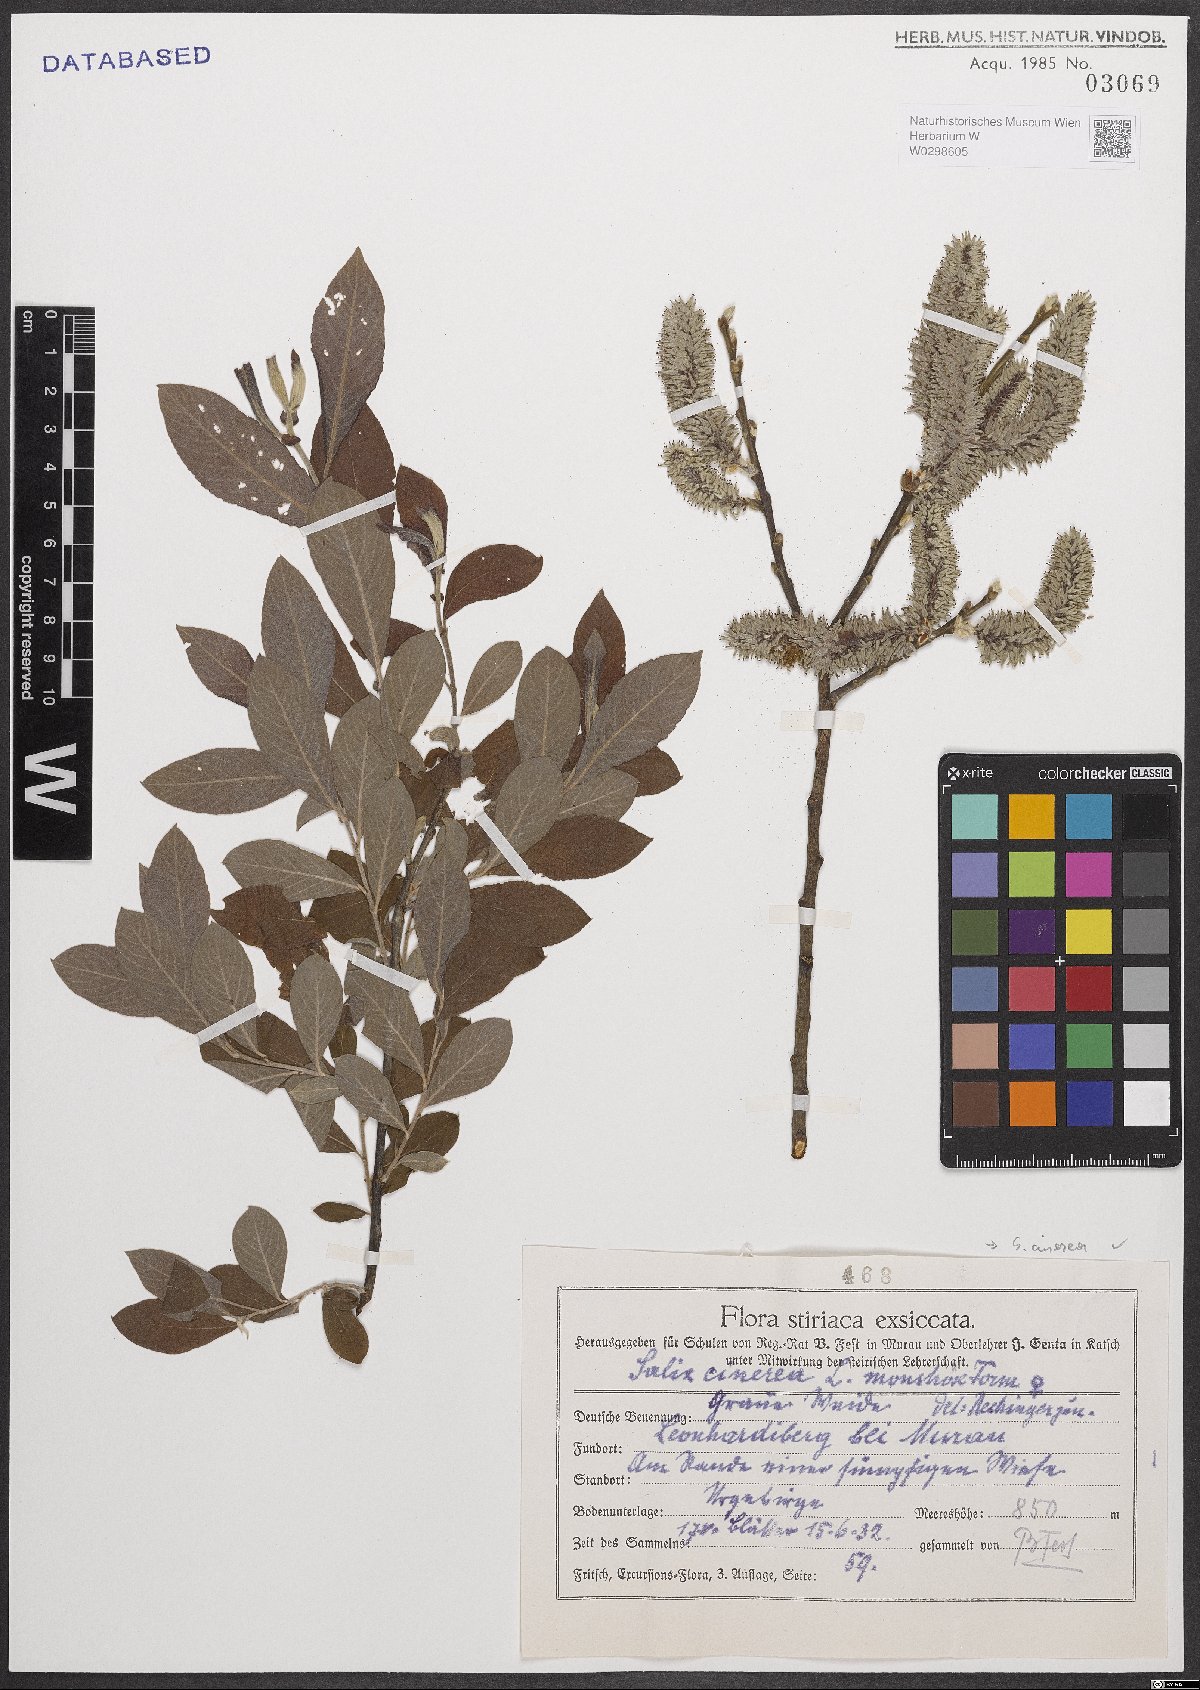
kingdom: Plantae
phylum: Tracheophyta
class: Magnoliopsida
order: Malpighiales
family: Salicaceae
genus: Salix
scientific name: Salix cinerea
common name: Common sallow
